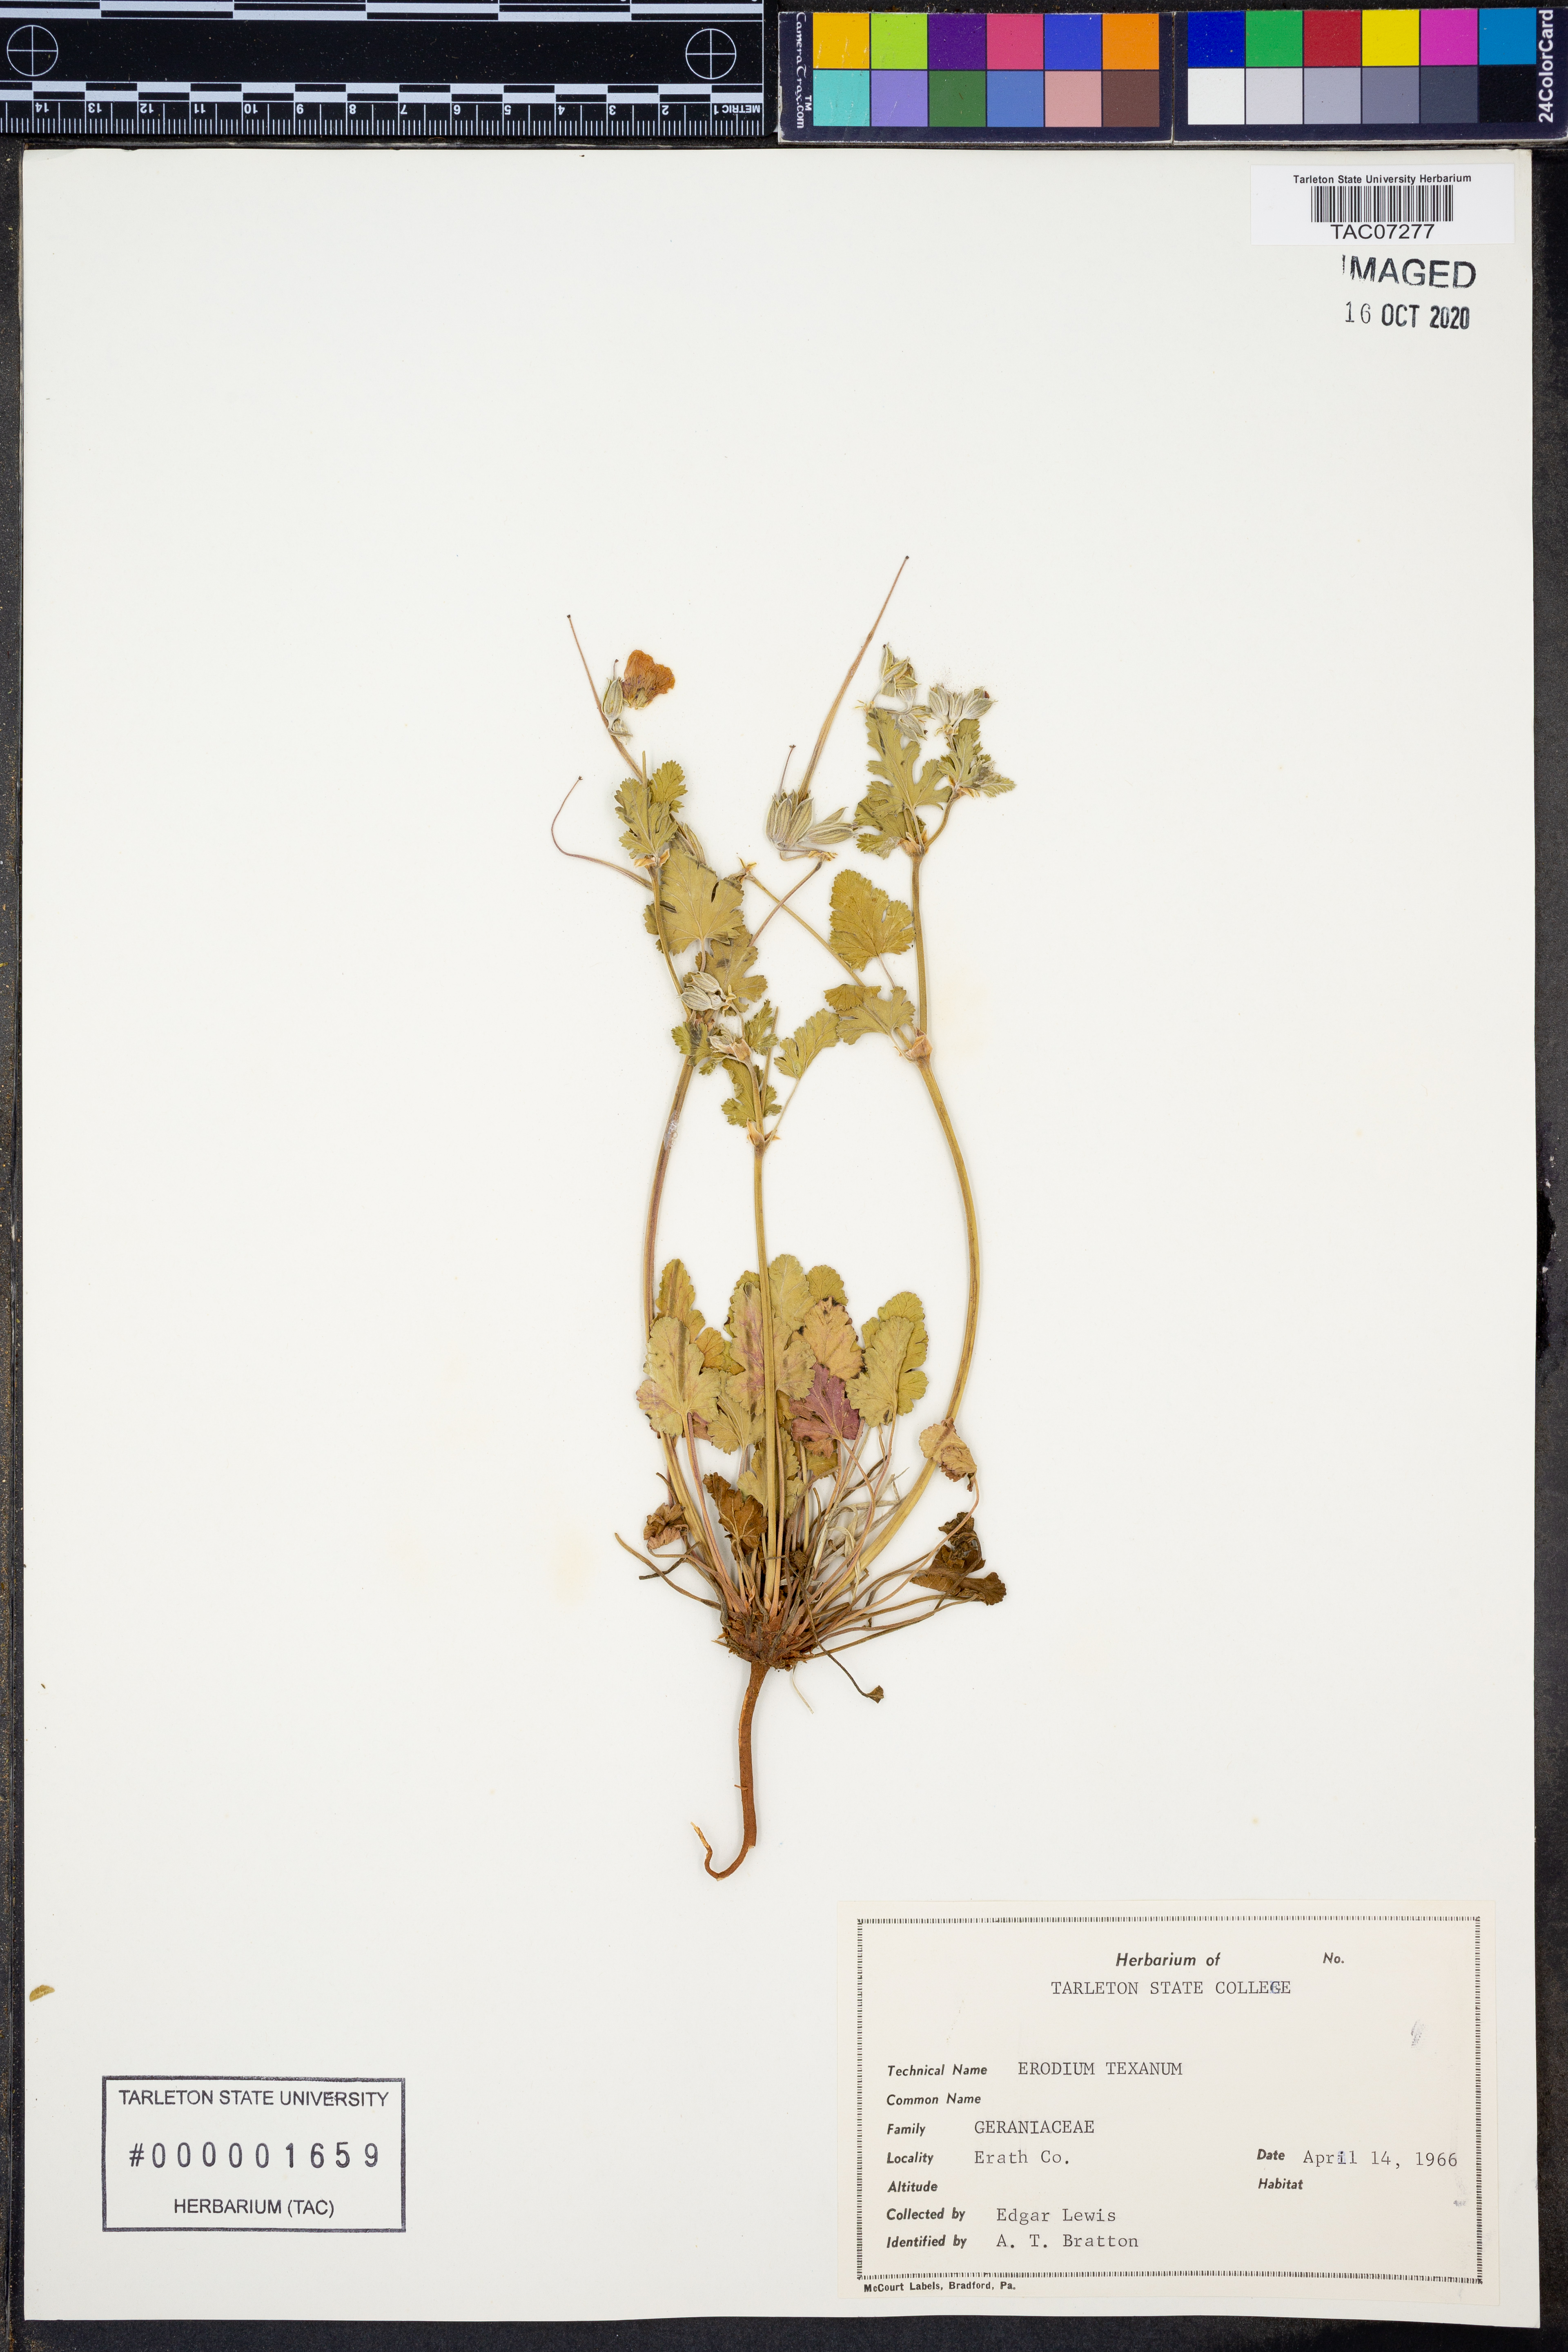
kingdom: Plantae
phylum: Tracheophyta
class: Magnoliopsida
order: Geraniales
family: Geraniaceae
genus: Erodium
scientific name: Erodium texanum
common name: Texas stork's-bill
